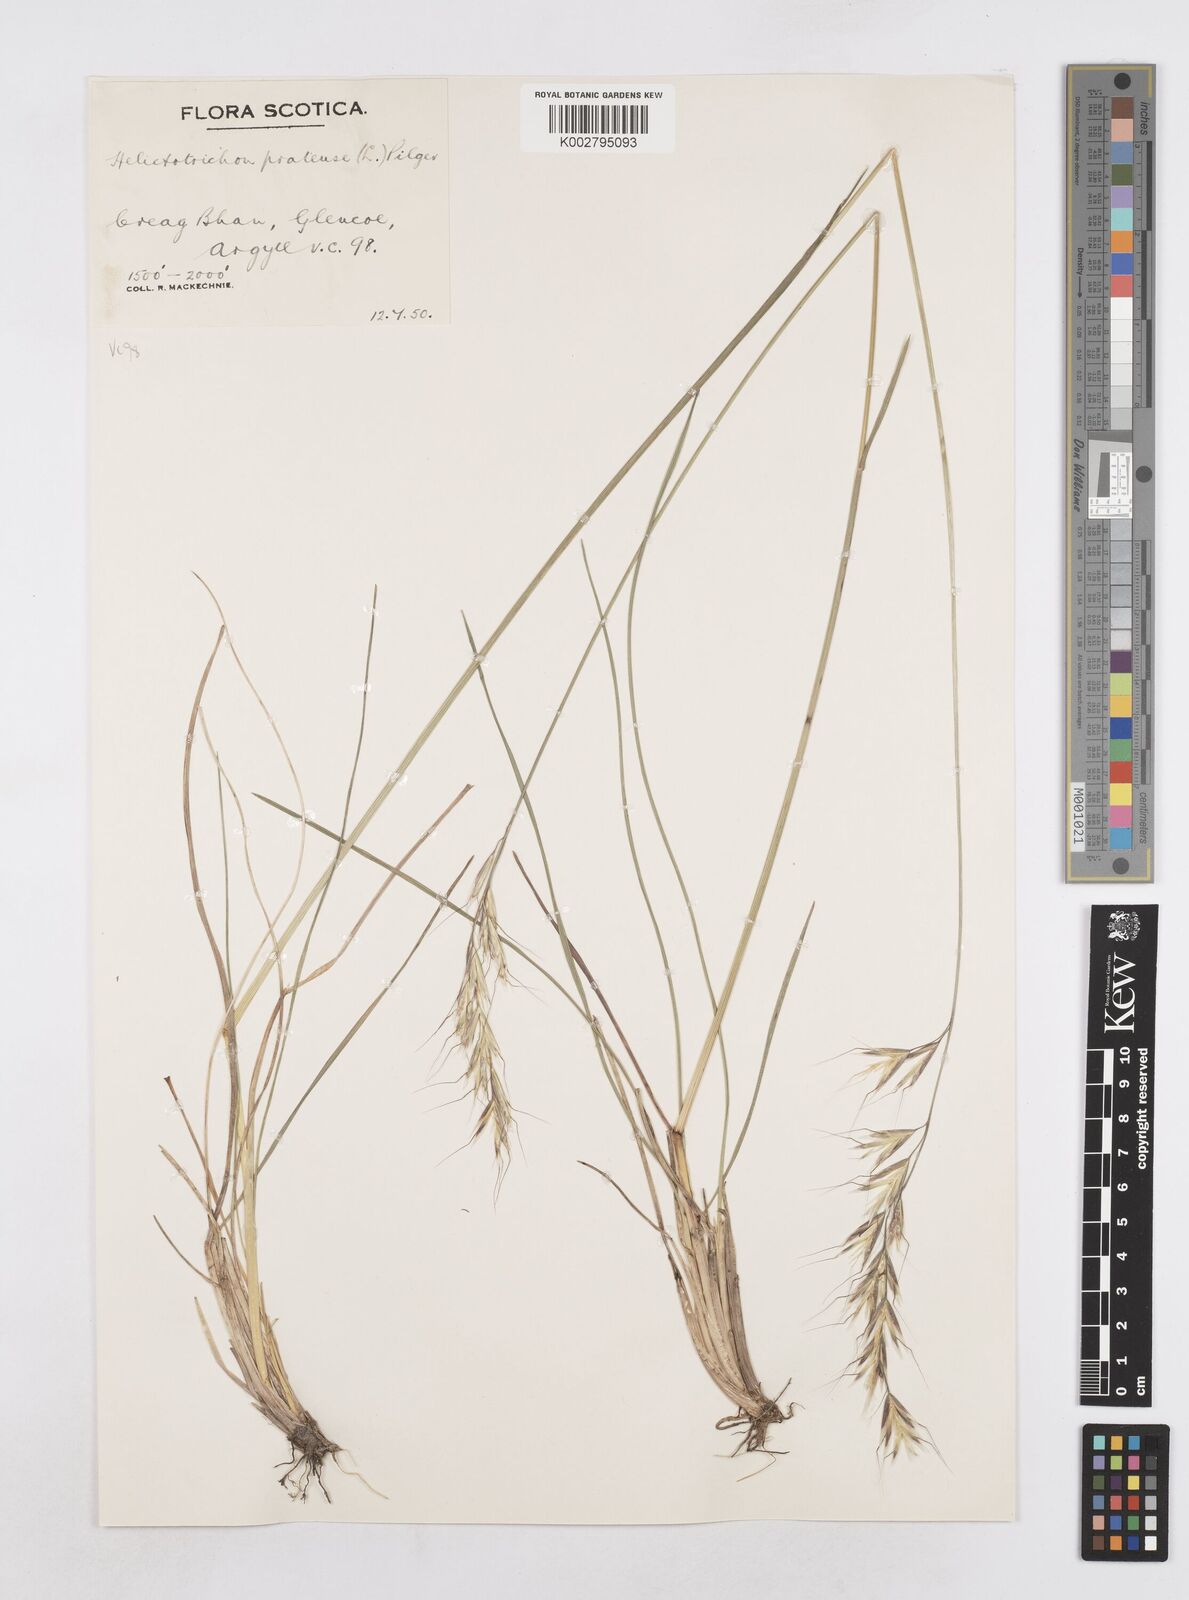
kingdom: Plantae
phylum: Tracheophyta
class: Liliopsida
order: Poales
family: Poaceae
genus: Helictochloa
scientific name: Helictochloa pratensis
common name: Meadow oat grass
